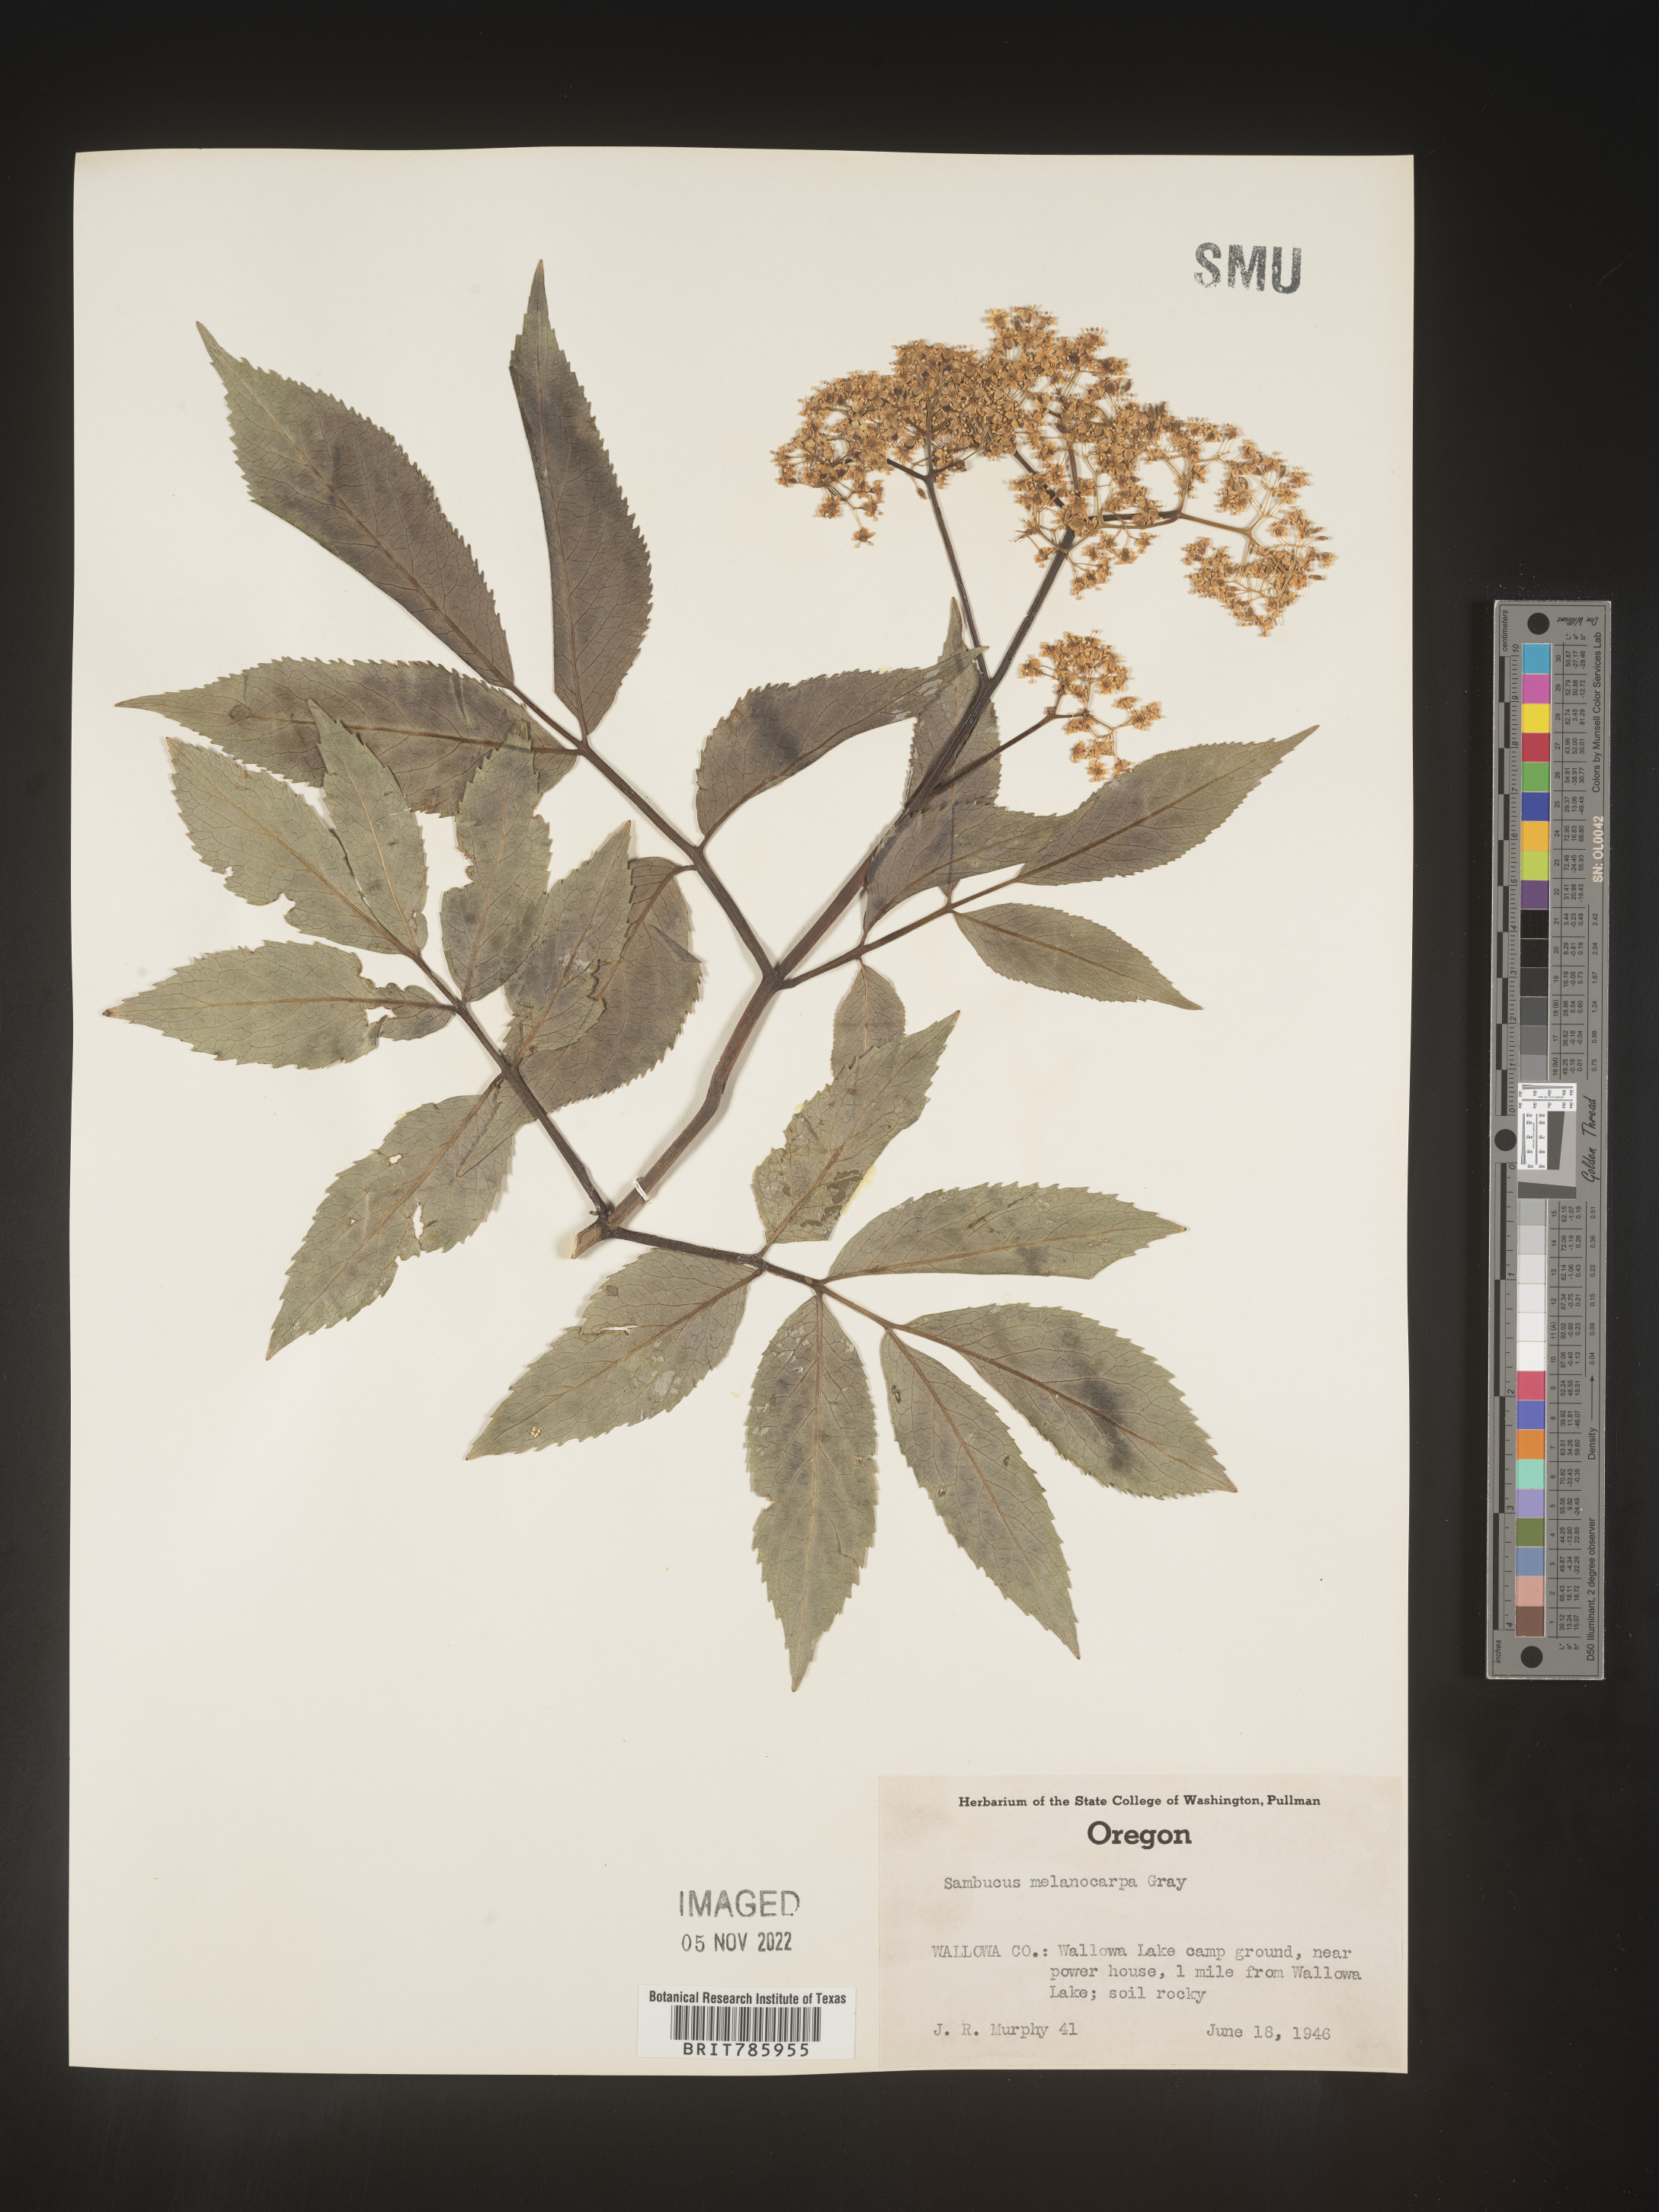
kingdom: Plantae
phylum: Tracheophyta
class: Magnoliopsida
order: Dipsacales
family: Viburnaceae
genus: Sambucus
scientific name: Sambucus racemosa
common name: Red-berried elder
